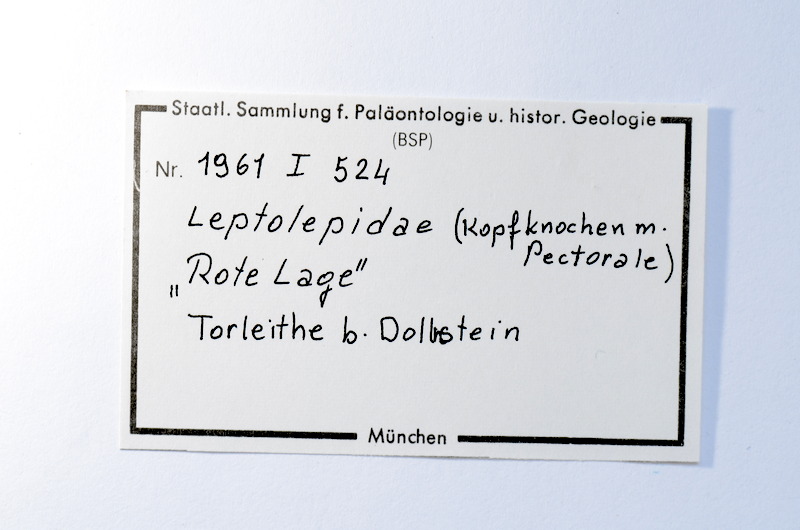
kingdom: Animalia
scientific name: Animalia
